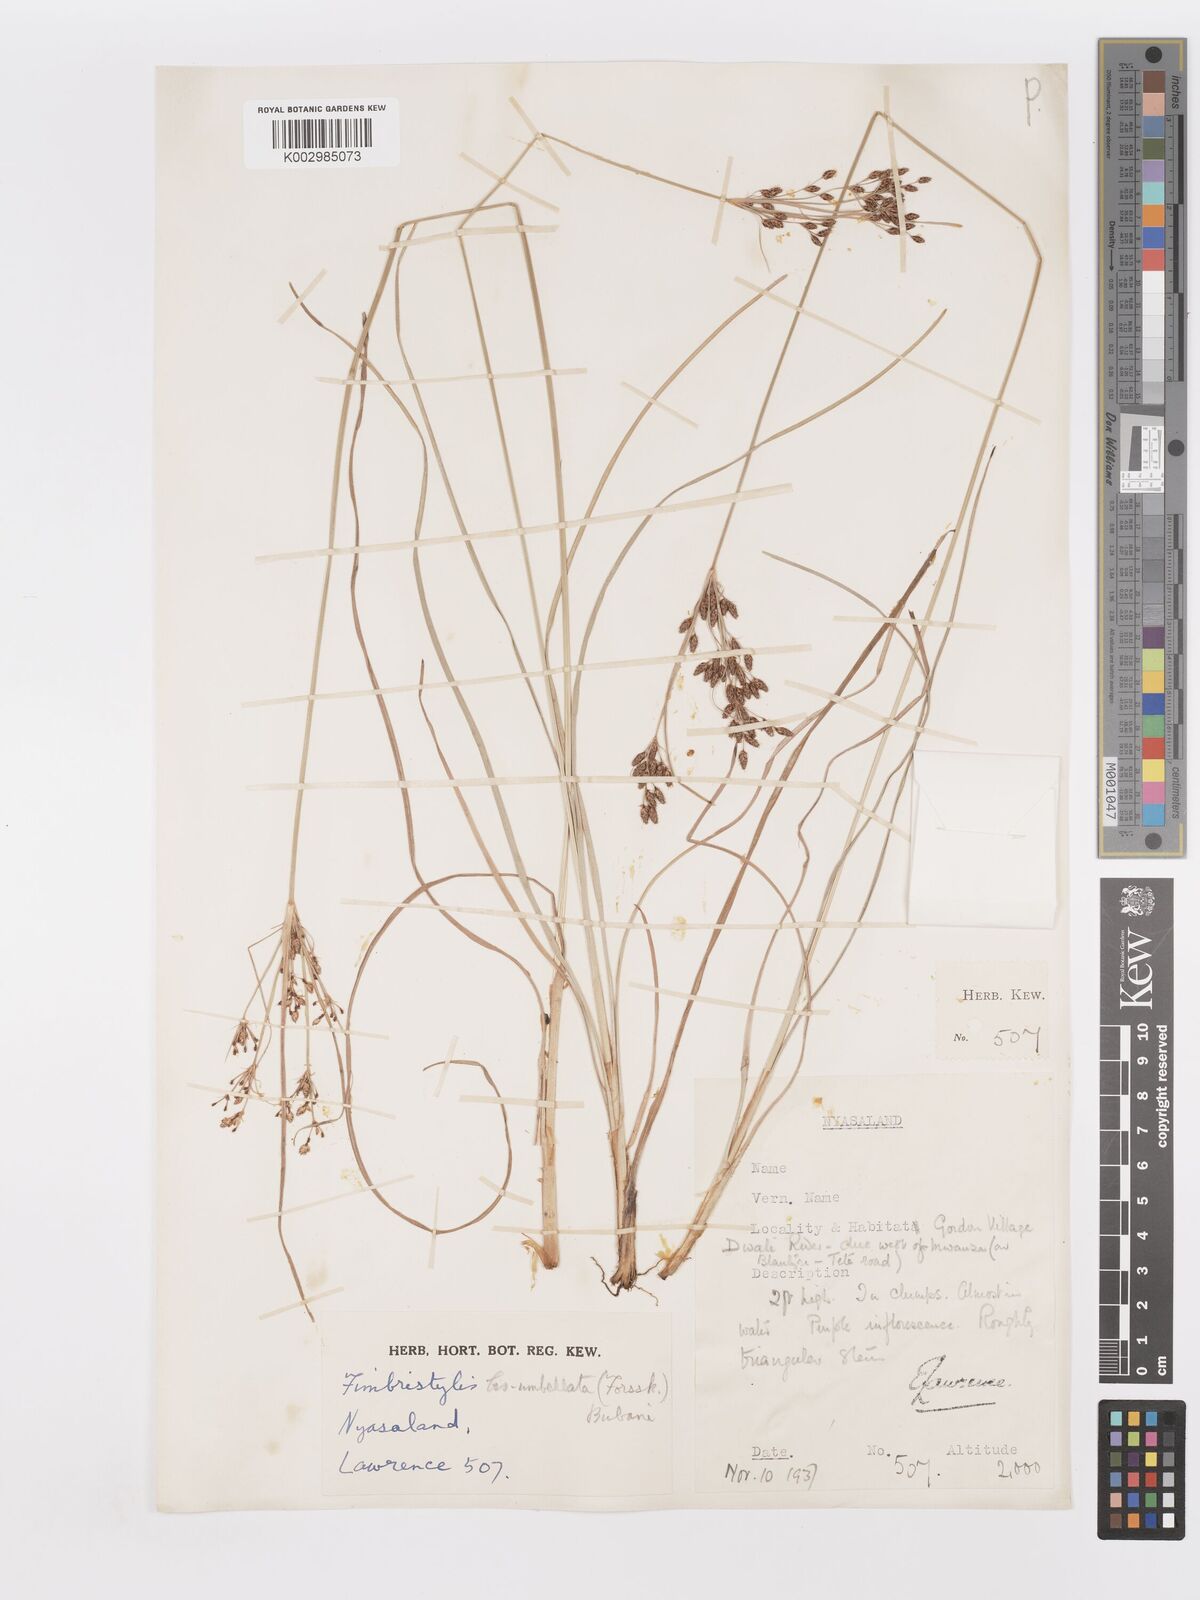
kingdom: Plantae
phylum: Tracheophyta
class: Liliopsida
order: Poales
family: Cyperaceae
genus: Fimbristylis
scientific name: Fimbristylis dichotoma
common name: Forked fimbry
